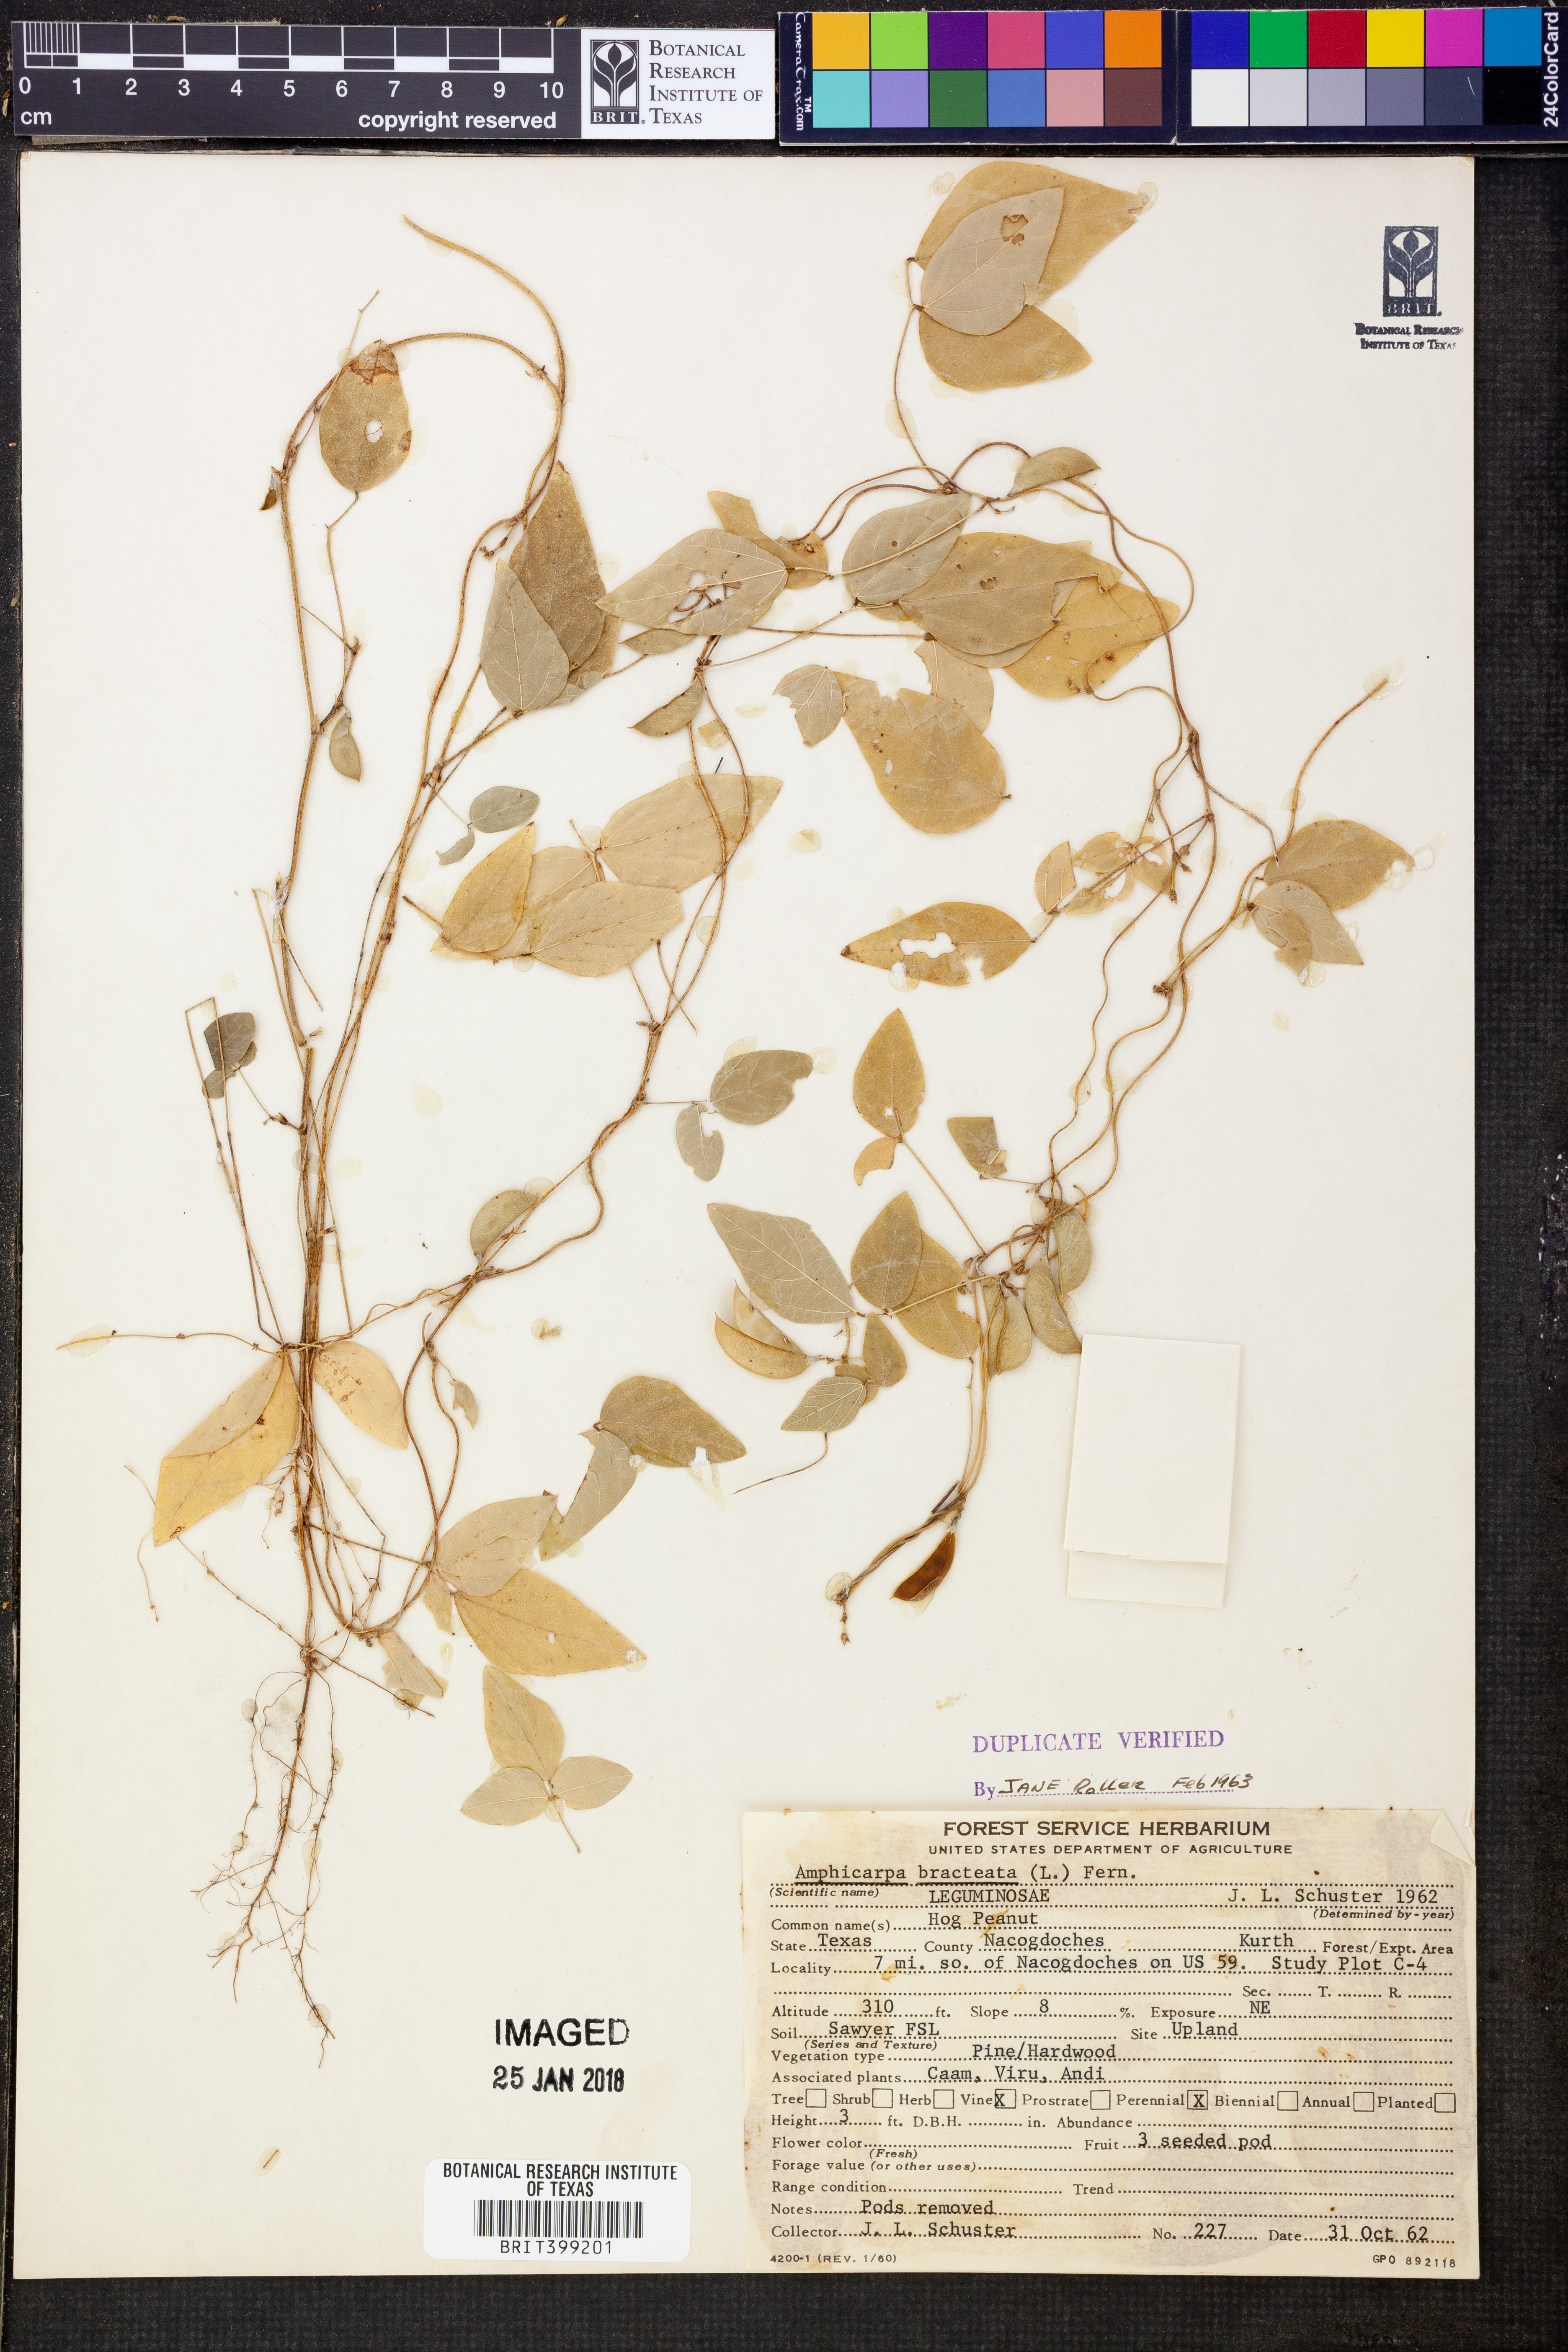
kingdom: Plantae
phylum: Tracheophyta
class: Magnoliopsida
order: Fabales
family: Fabaceae
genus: Amphicarpaea
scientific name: Amphicarpaea bracteata
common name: American hog peanut
